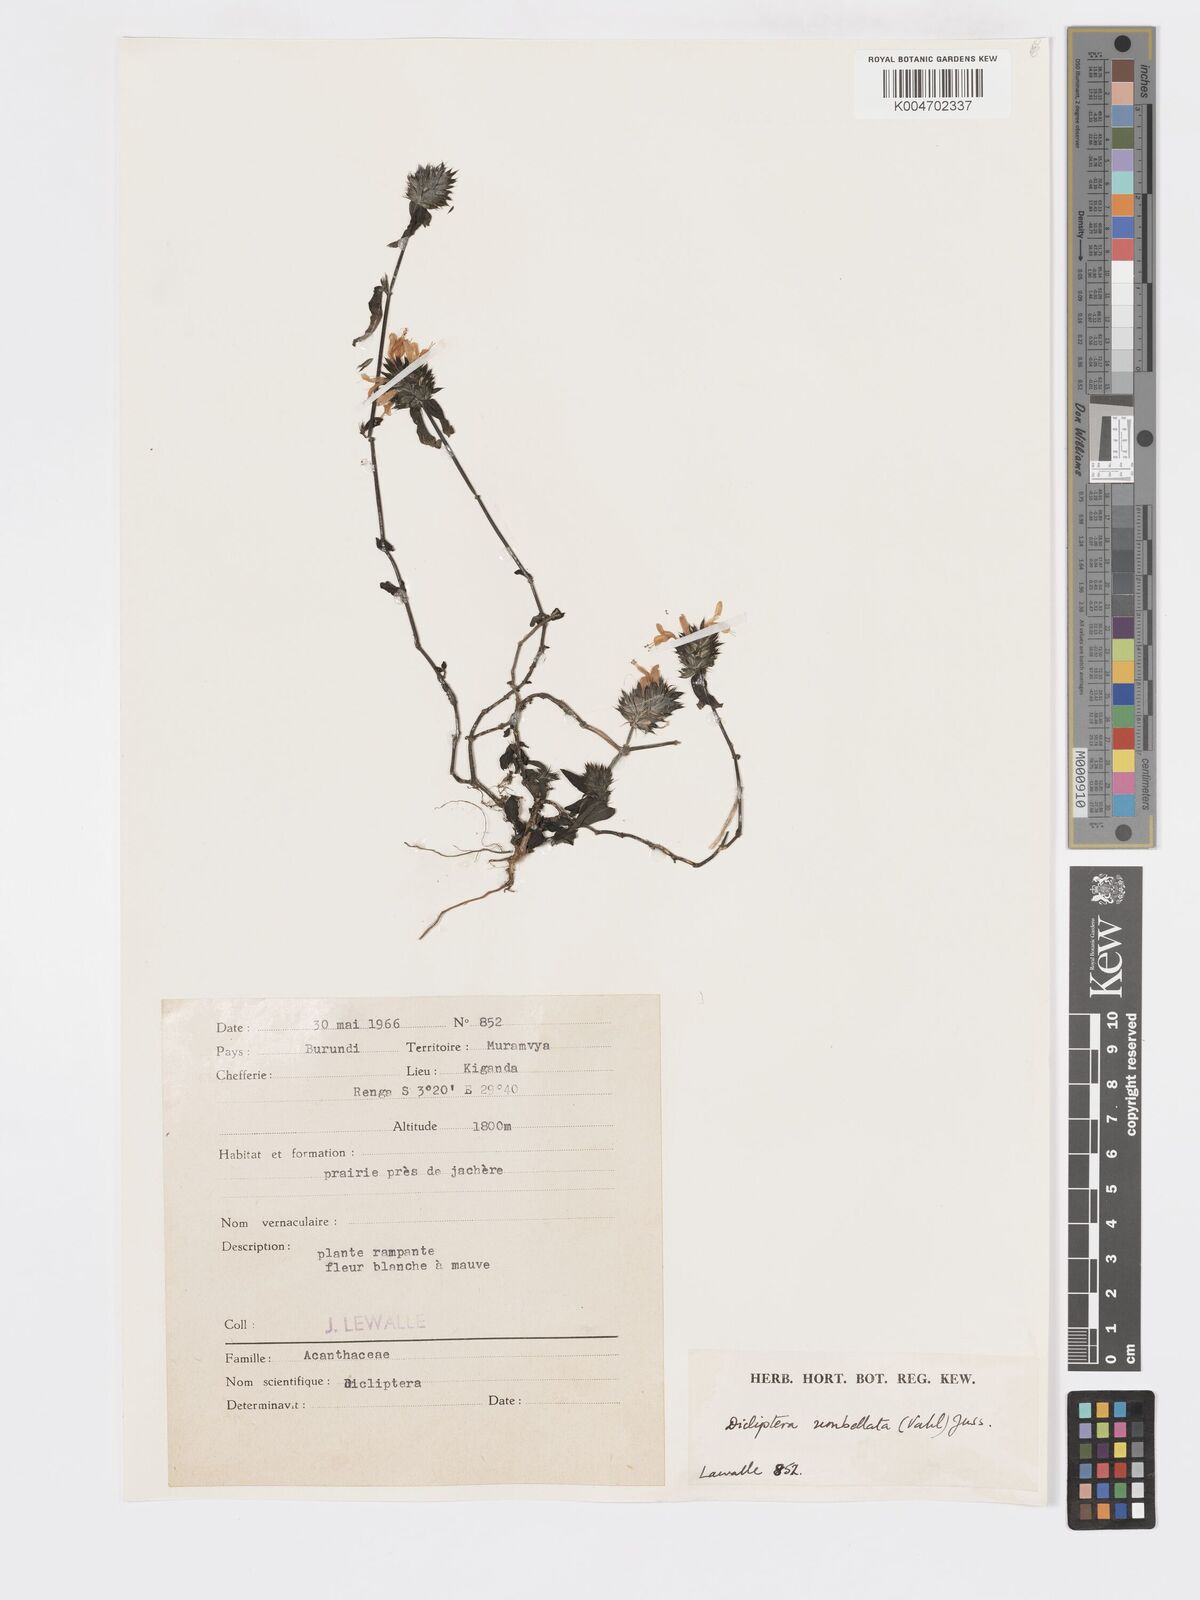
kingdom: Plantae
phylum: Tracheophyta
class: Magnoliopsida
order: Lamiales
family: Acanthaceae
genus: Dicliptera
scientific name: Dicliptera carvalhoi
